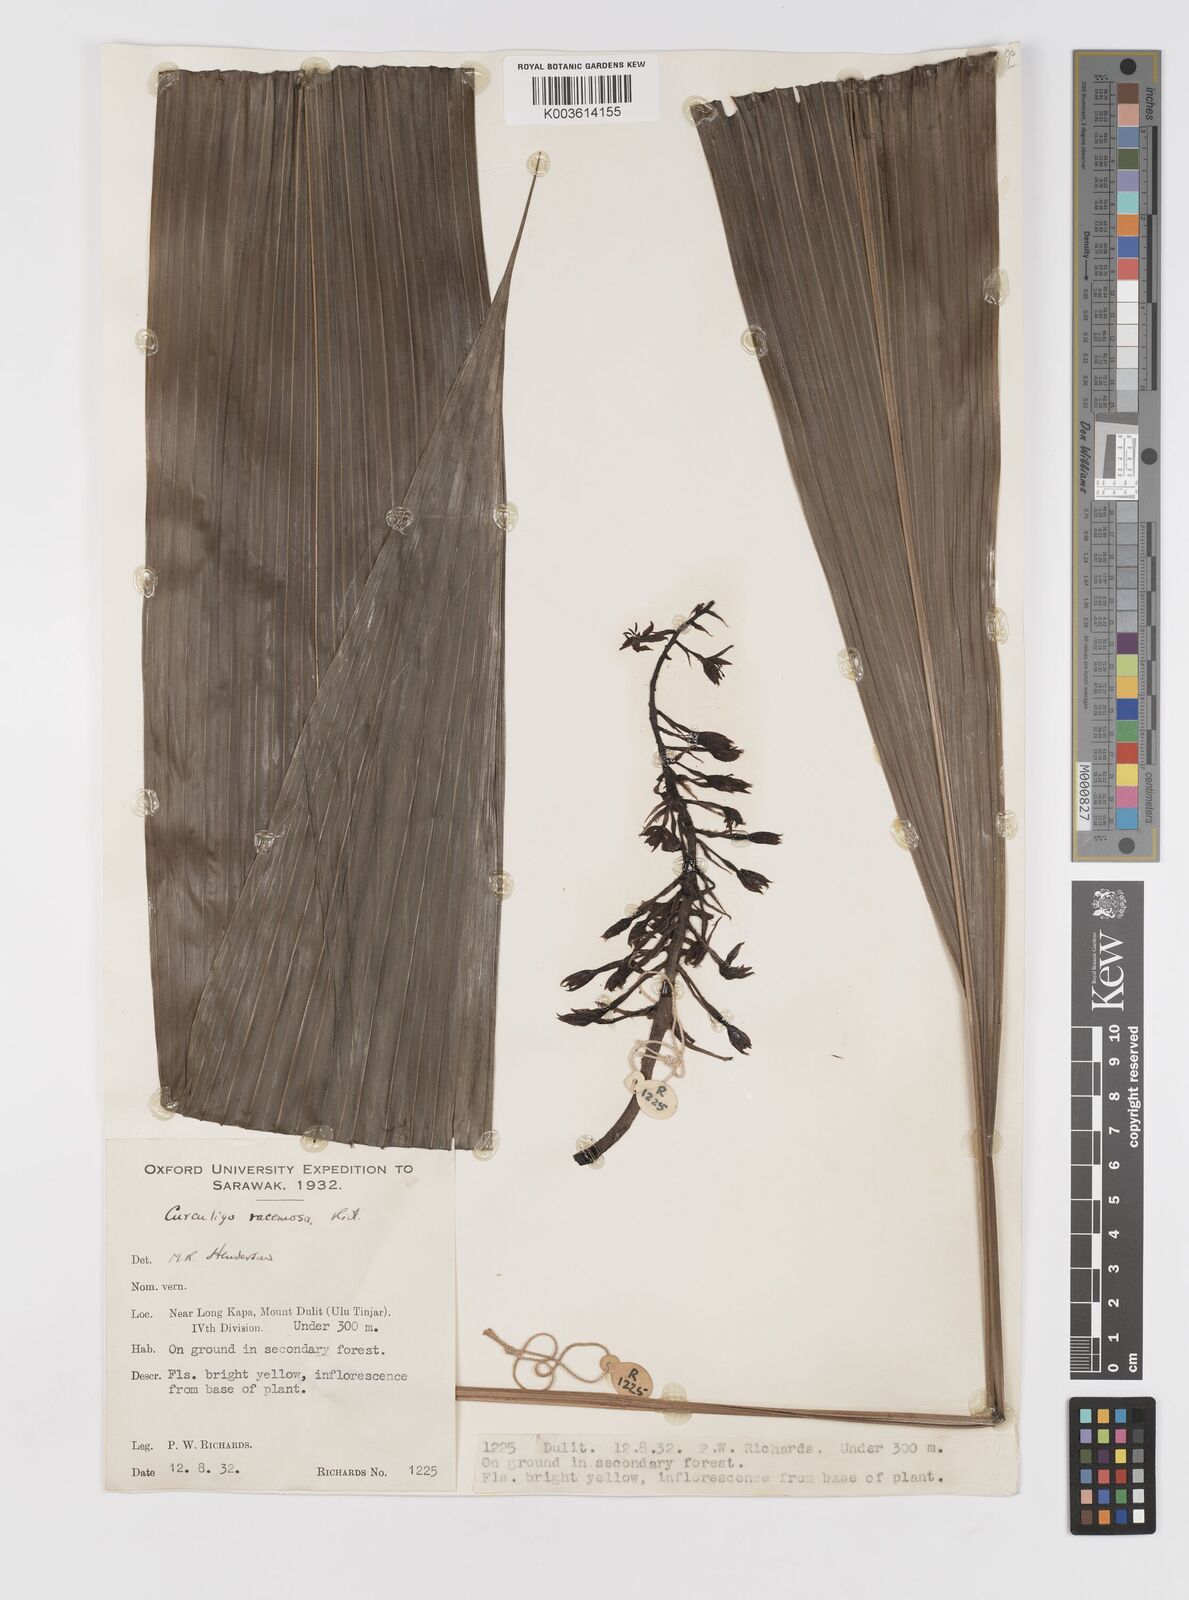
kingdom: Plantae
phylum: Tracheophyta
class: Liliopsida
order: Asparagales
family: Hypoxidaceae
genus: Curculigo
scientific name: Curculigo racemosa
